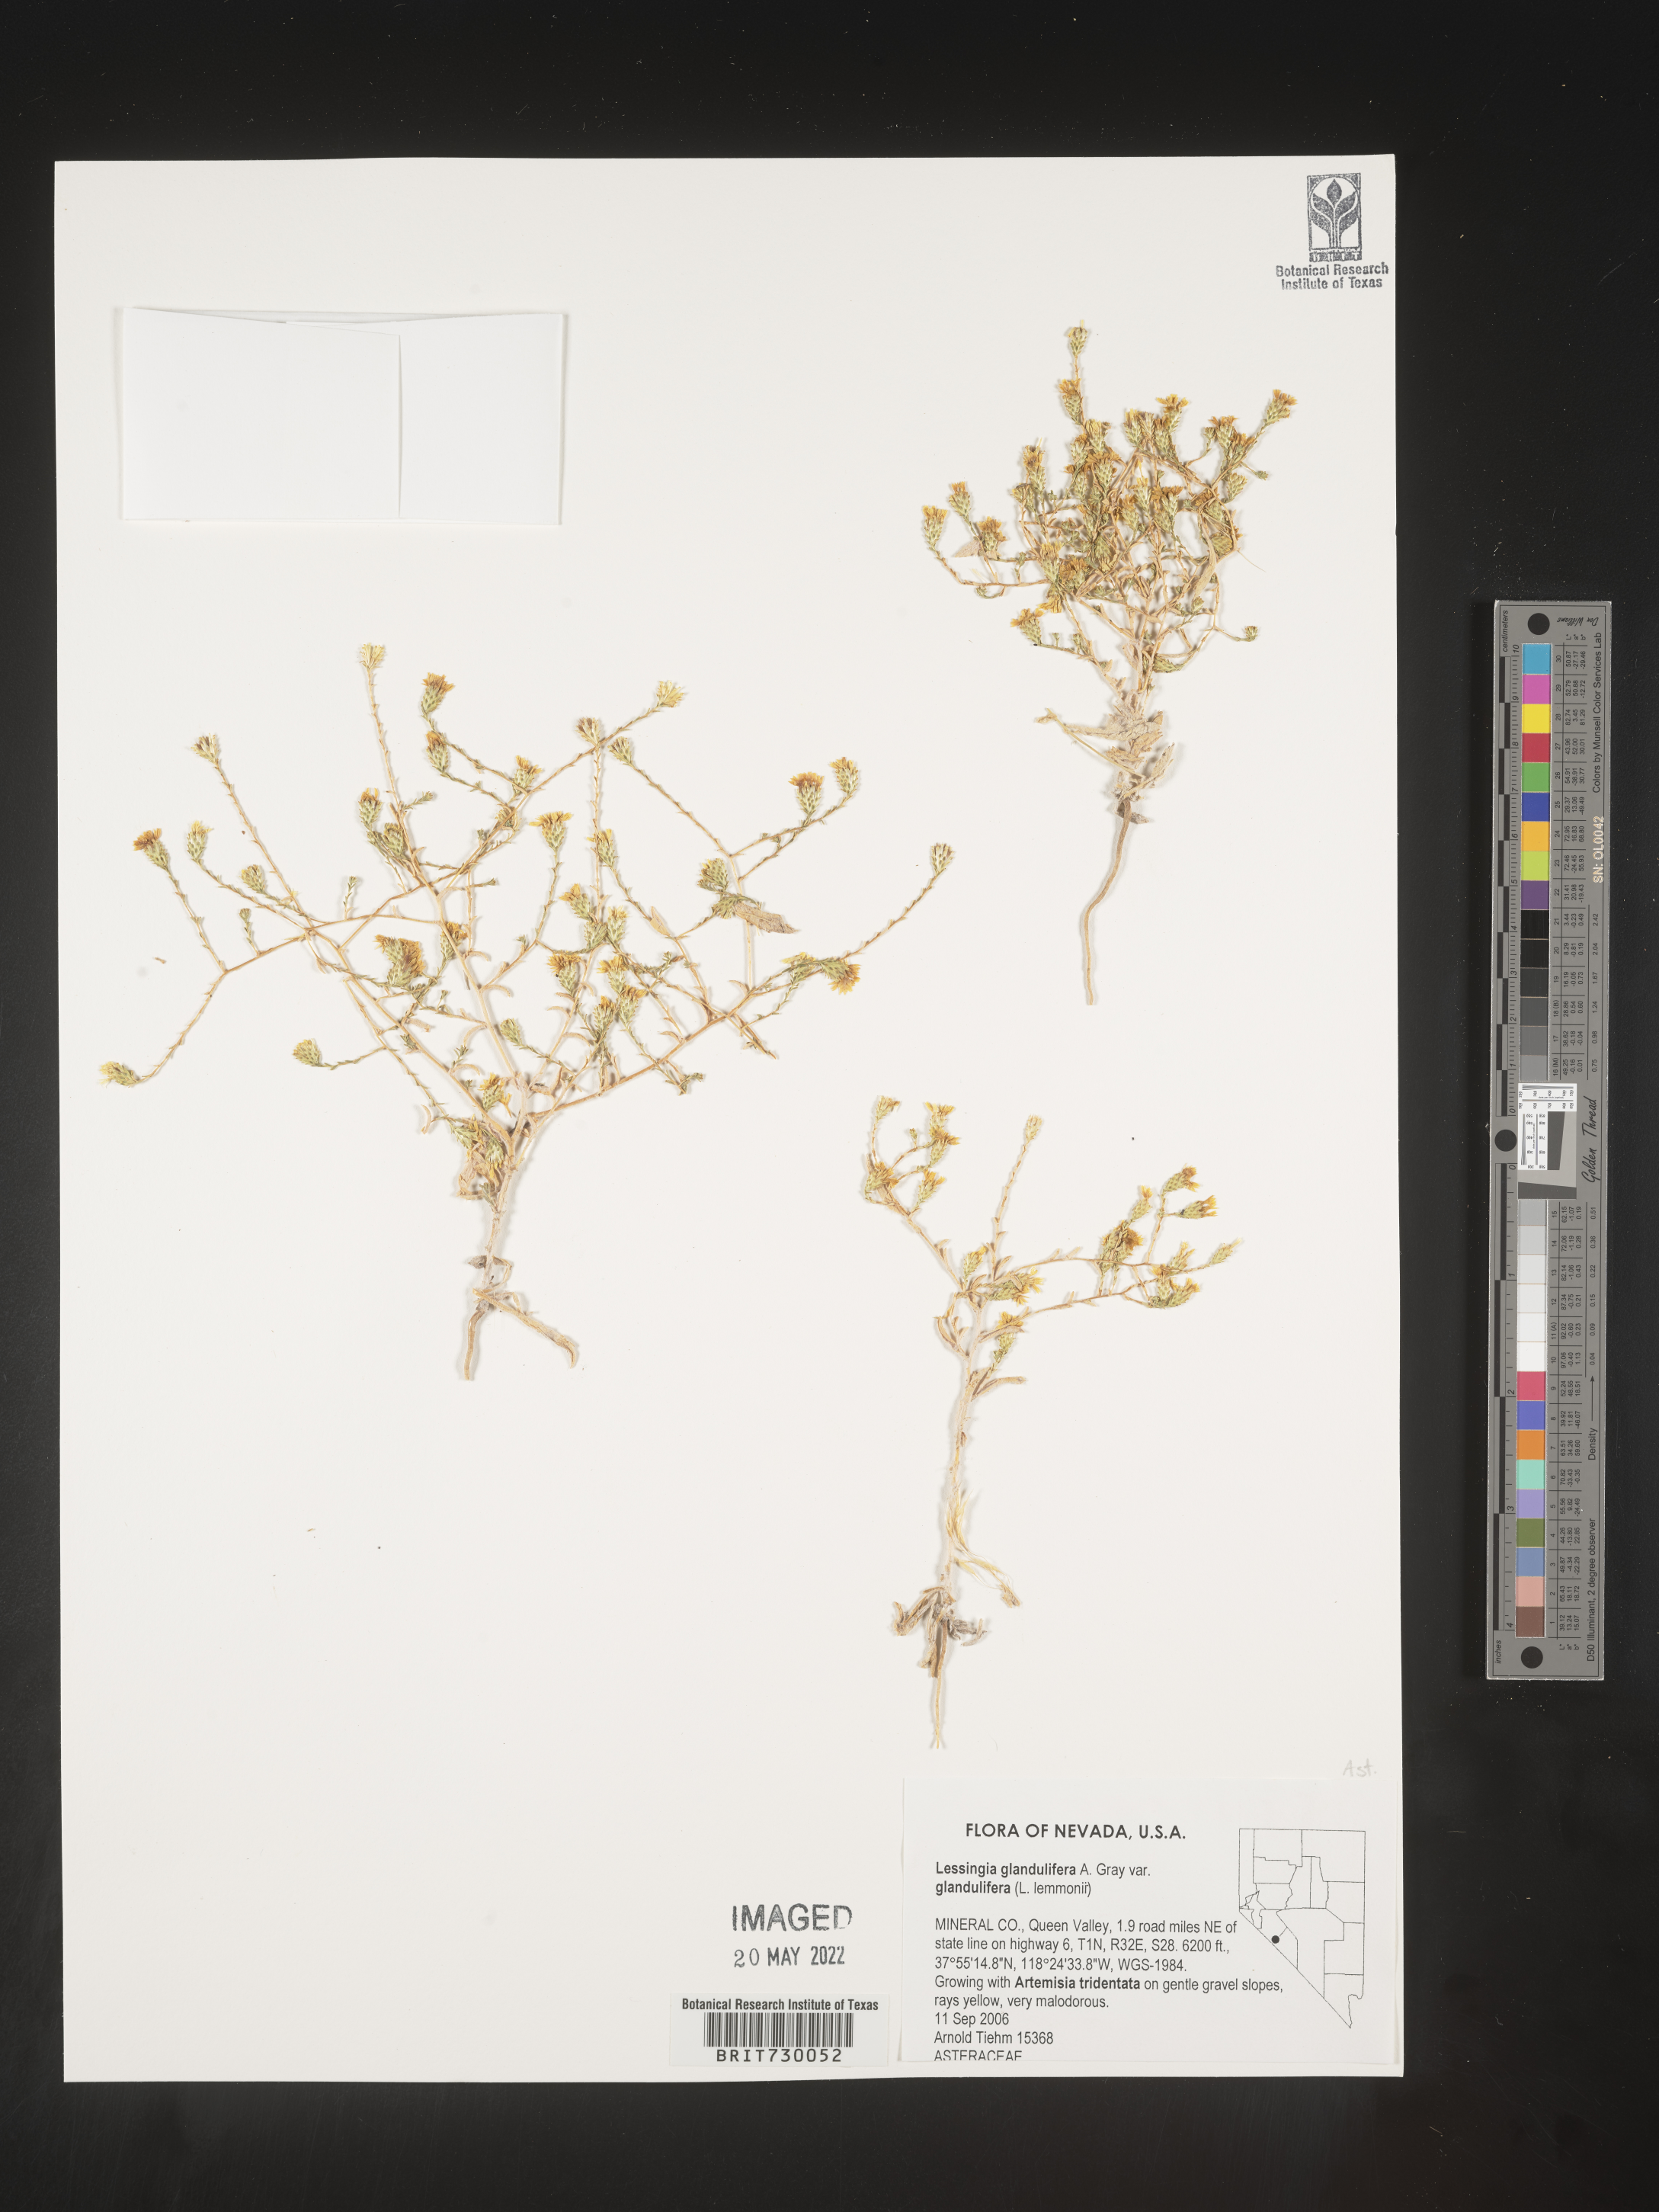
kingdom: Plantae
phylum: Tracheophyta
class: Magnoliopsida
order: Asterales
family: Asteraceae
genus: Lessingia
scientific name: Lessingia
